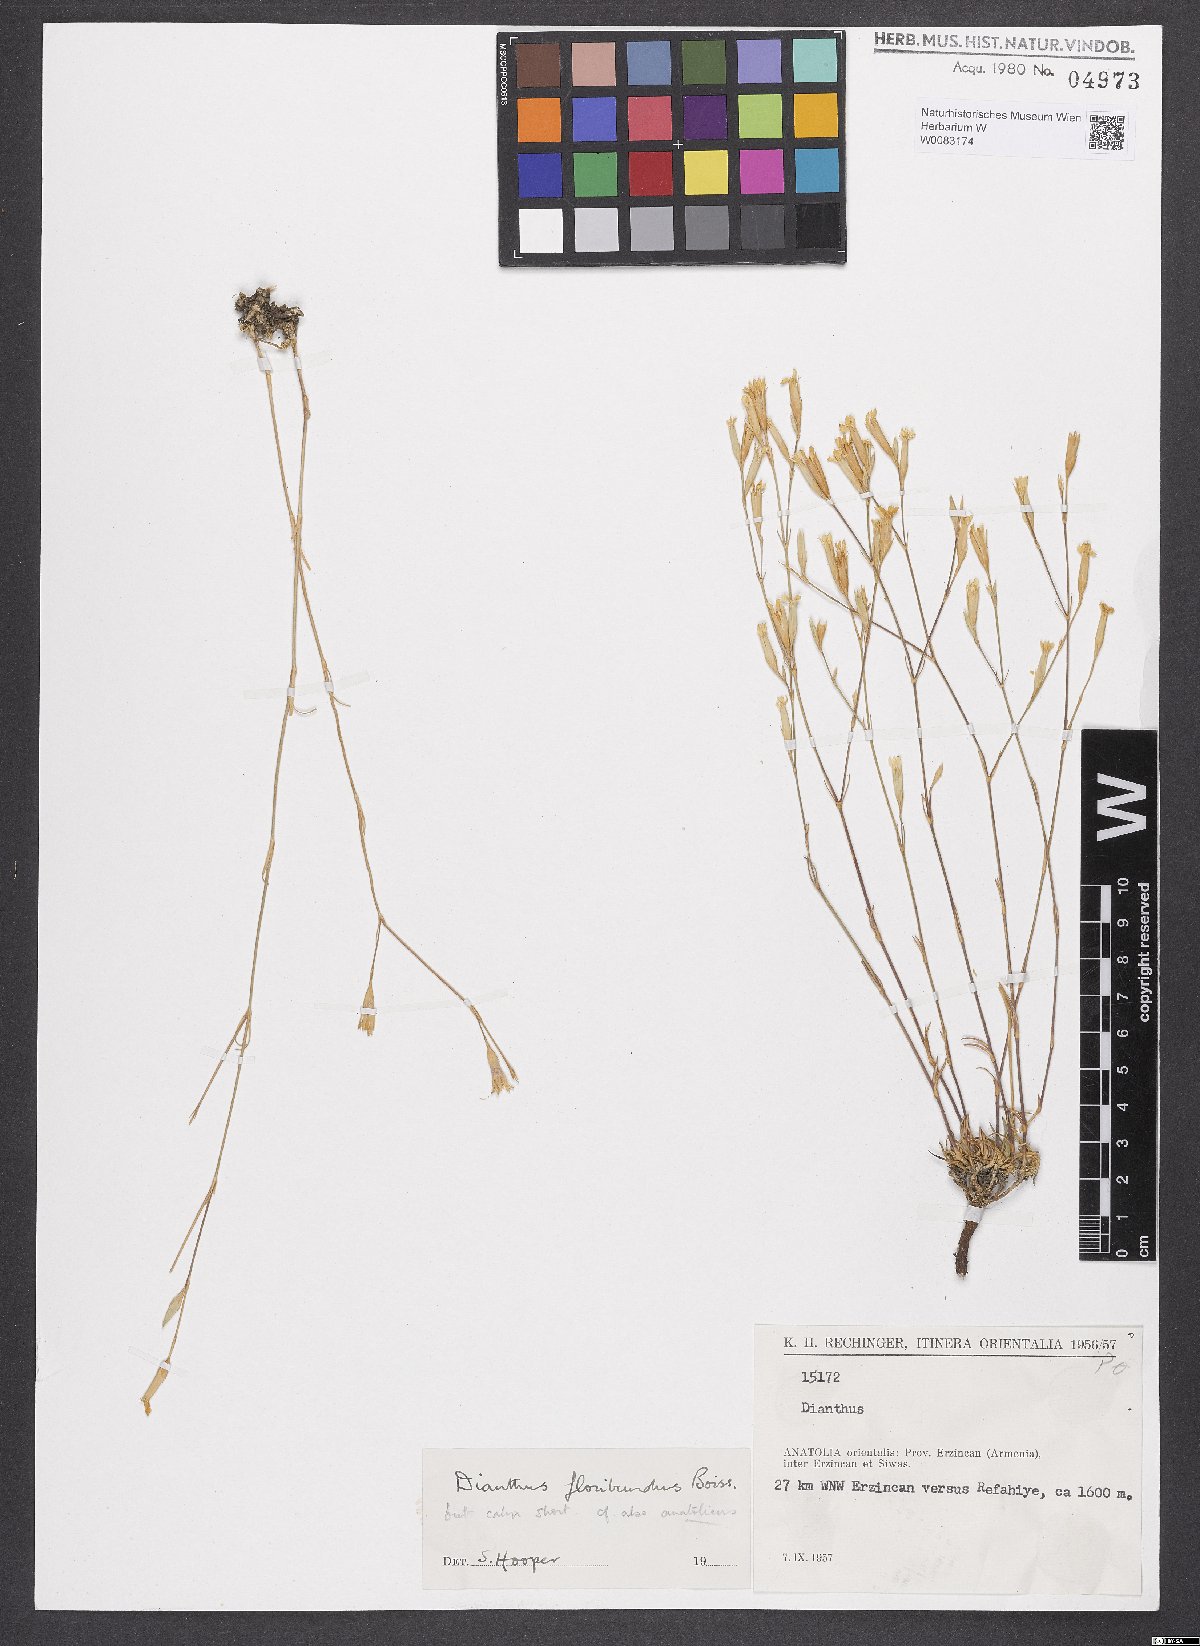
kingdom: Plantae
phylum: Tracheophyta
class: Magnoliopsida
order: Caryophyllales
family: Caryophyllaceae
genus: Dianthus
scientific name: Dianthus floribundus
